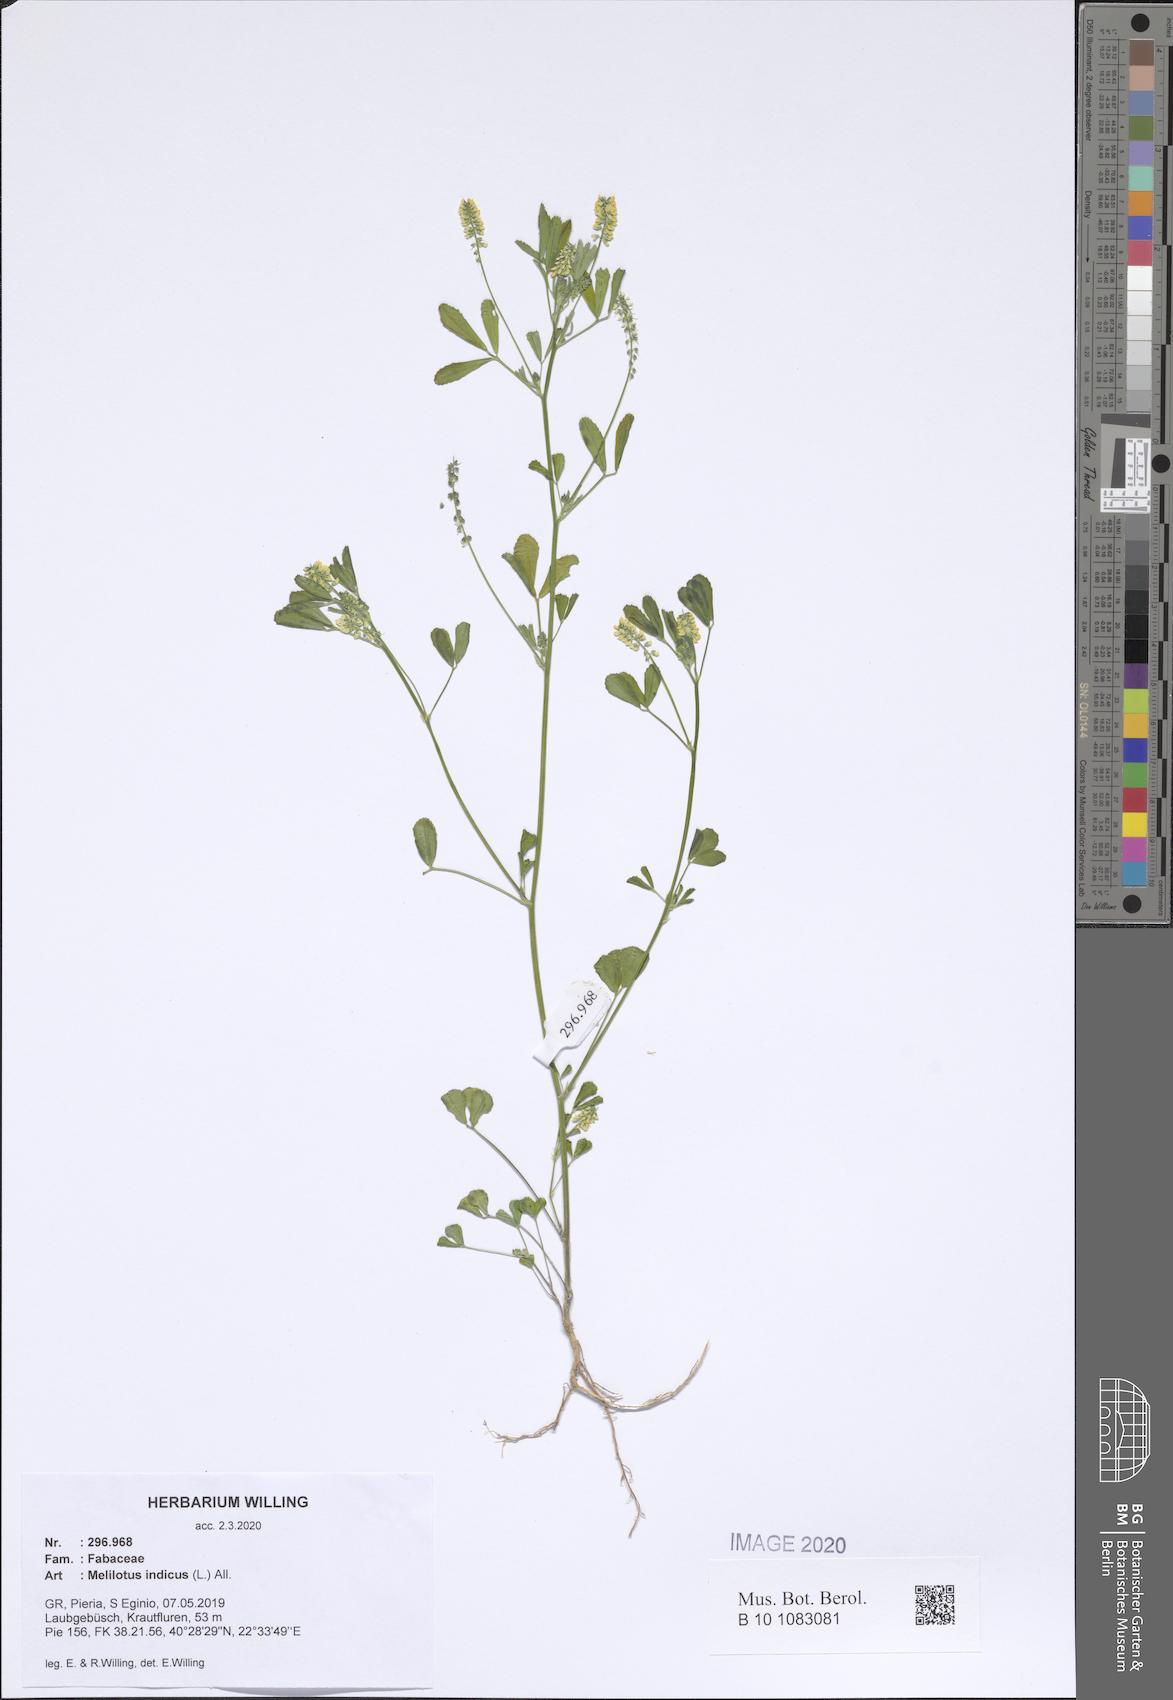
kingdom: Plantae
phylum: Tracheophyta
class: Magnoliopsida
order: Fabales
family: Fabaceae
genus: Melilotus
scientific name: Melilotus indicus
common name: Small melilot
